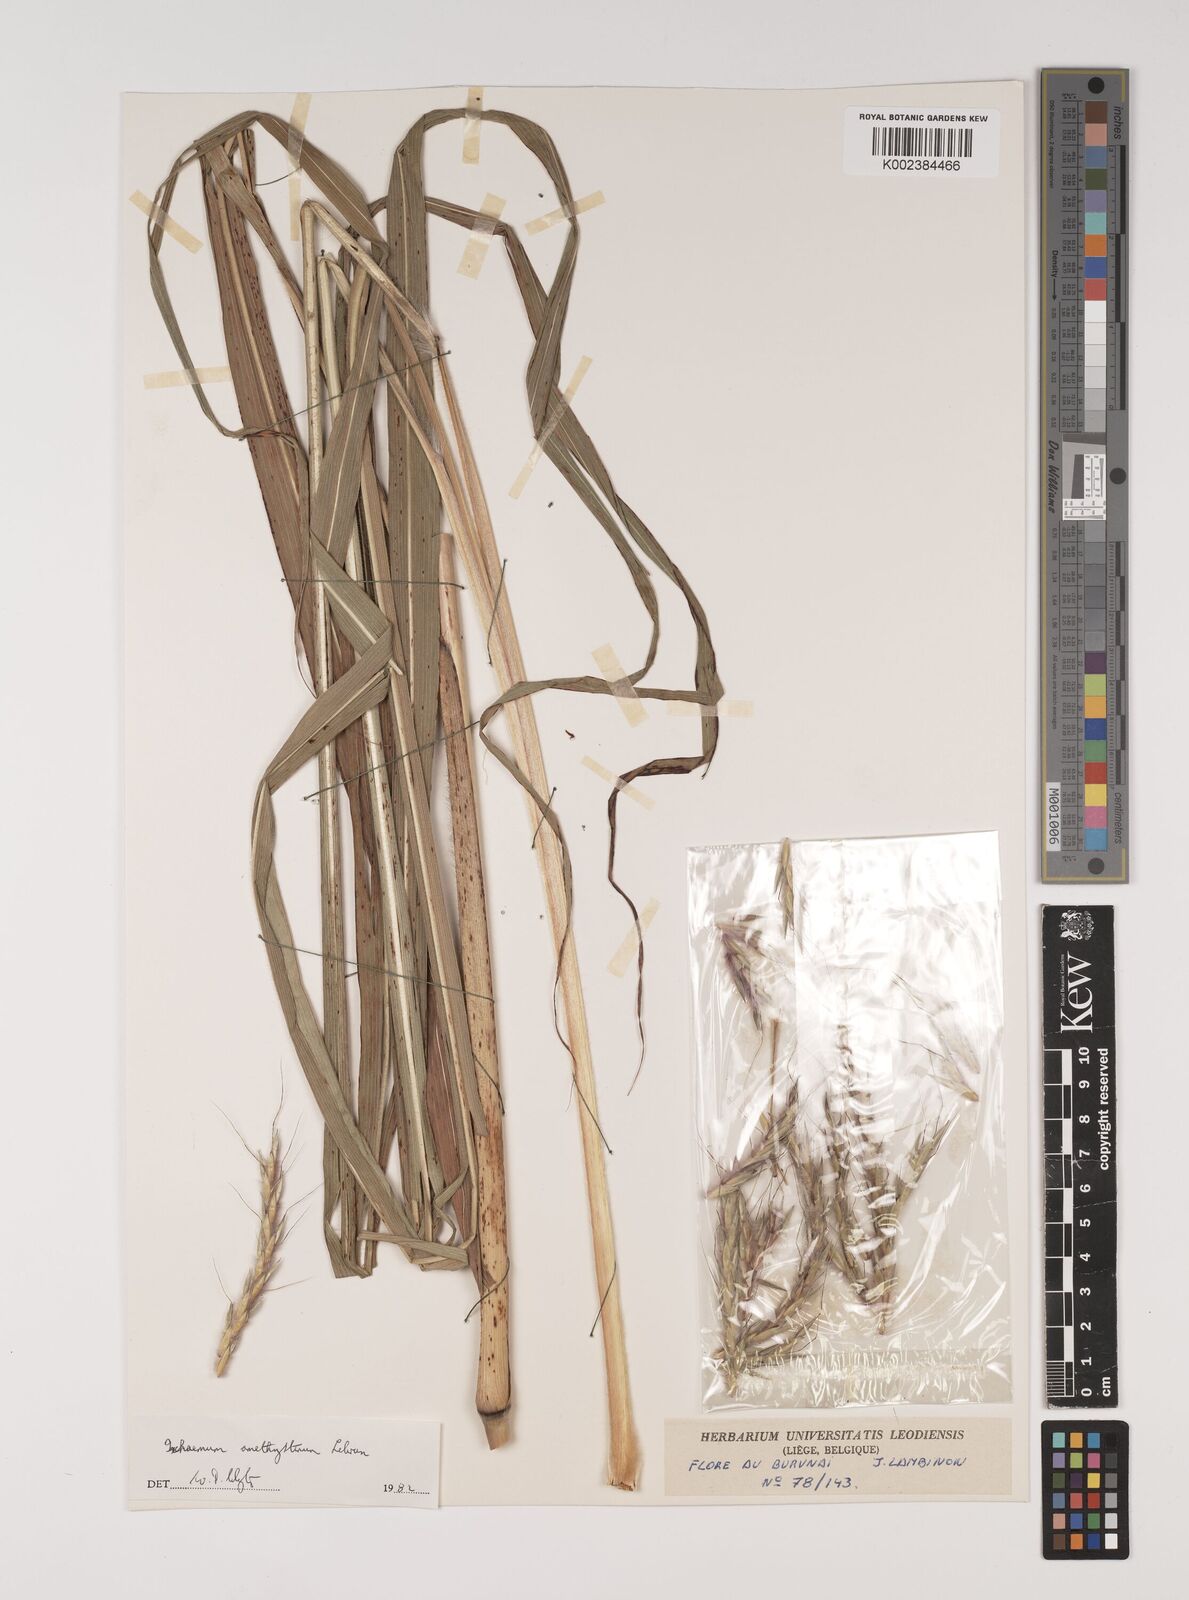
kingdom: Plantae
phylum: Tracheophyta
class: Liliopsida
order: Poales
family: Poaceae
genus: Ischaemum
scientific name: Ischaemum amethystinum
